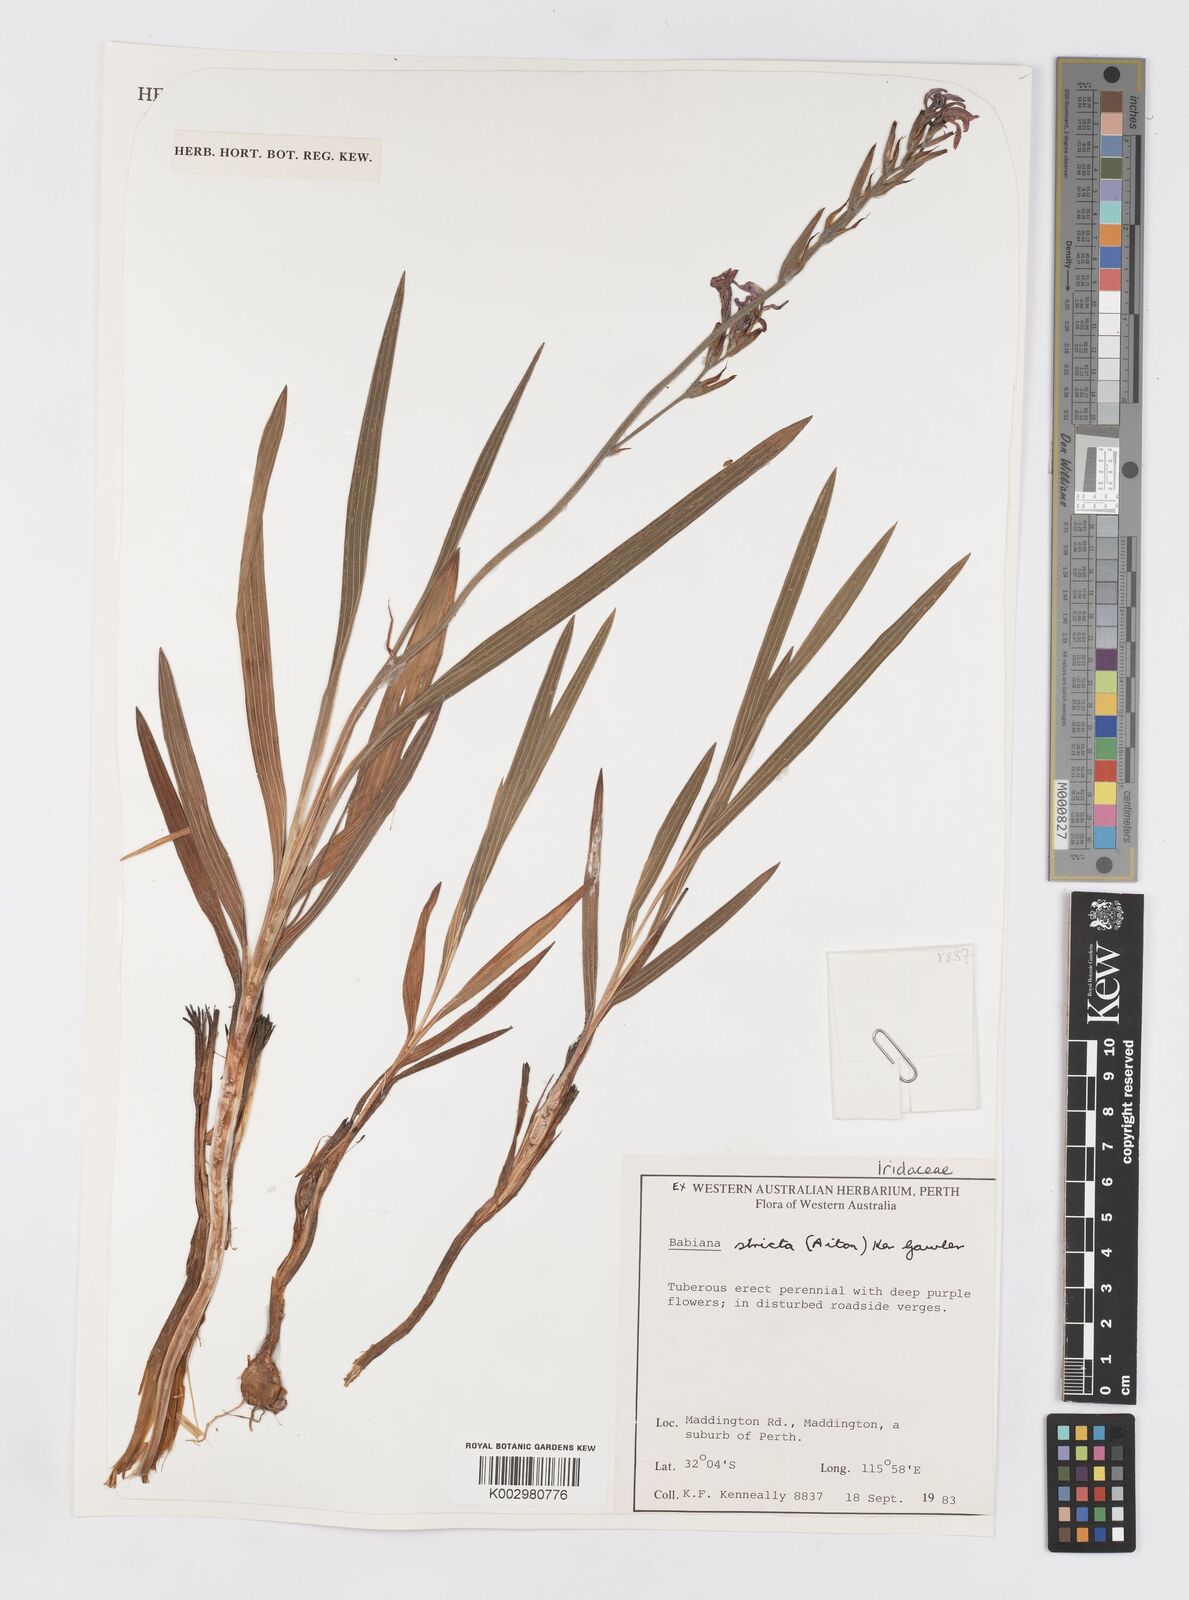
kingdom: Plantae
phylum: Tracheophyta
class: Liliopsida
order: Asparagales
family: Iridaceae
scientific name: Iridaceae
